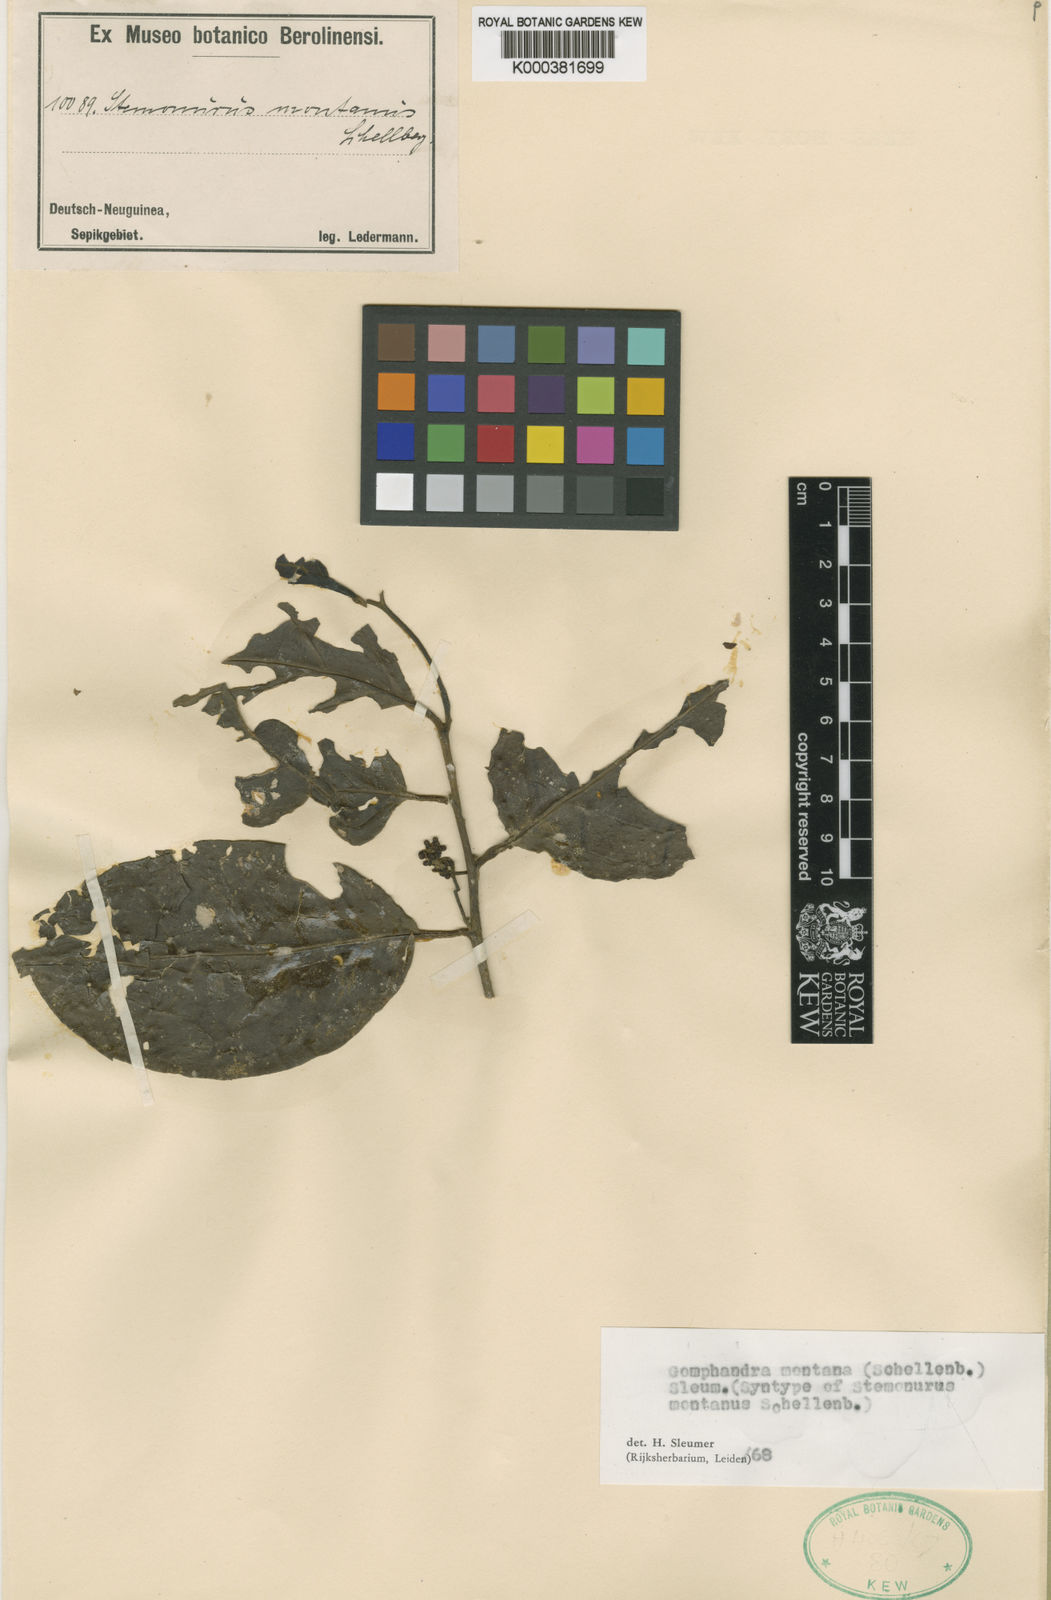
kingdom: Plantae
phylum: Tracheophyta
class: Magnoliopsida
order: Cardiopteridales
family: Stemonuraceae
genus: Gomphandra
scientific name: Gomphandra montana
